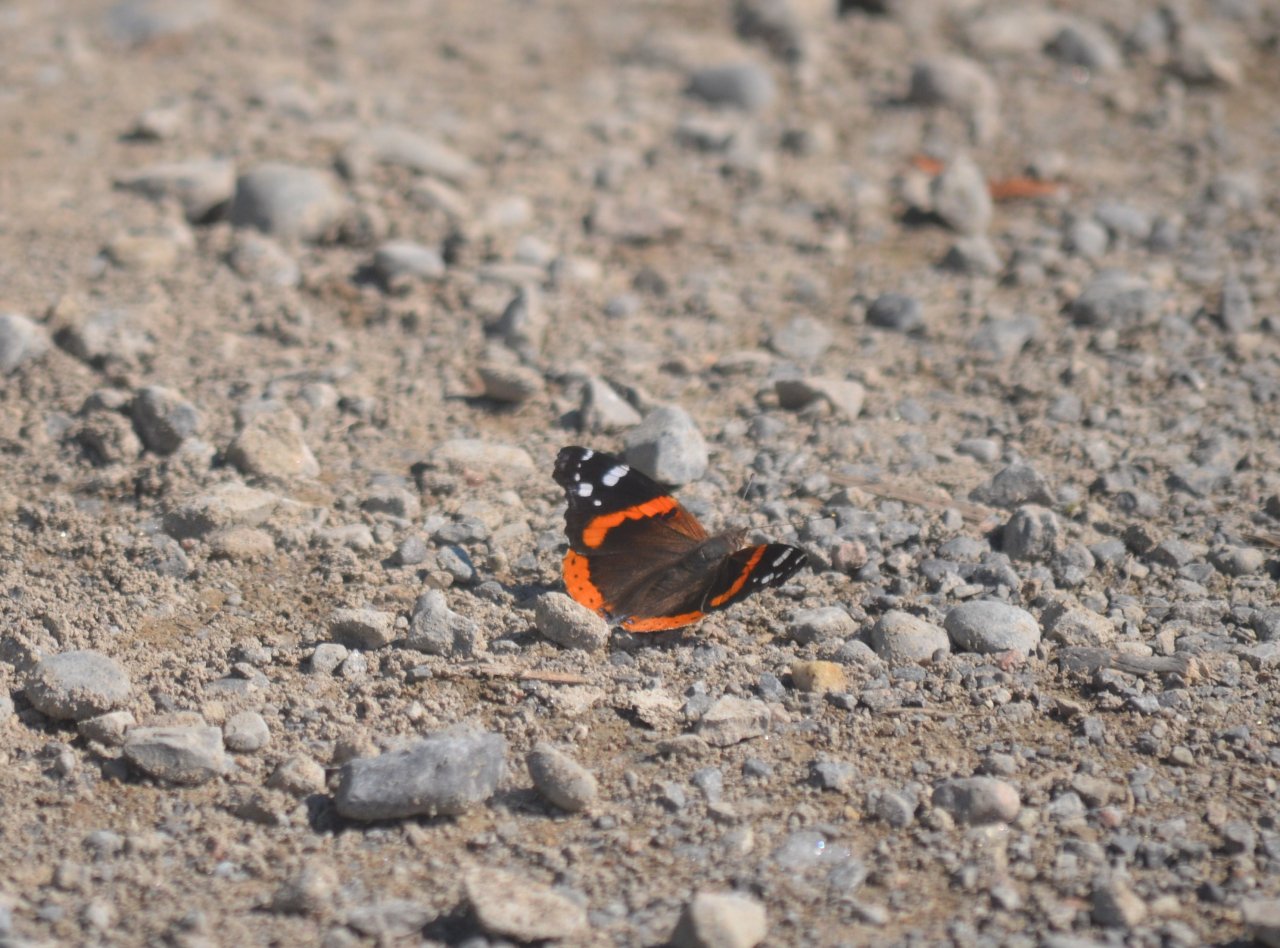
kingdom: Animalia
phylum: Arthropoda
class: Insecta
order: Lepidoptera
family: Nymphalidae
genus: Vanessa
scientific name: Vanessa atalanta
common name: Red Admiral
